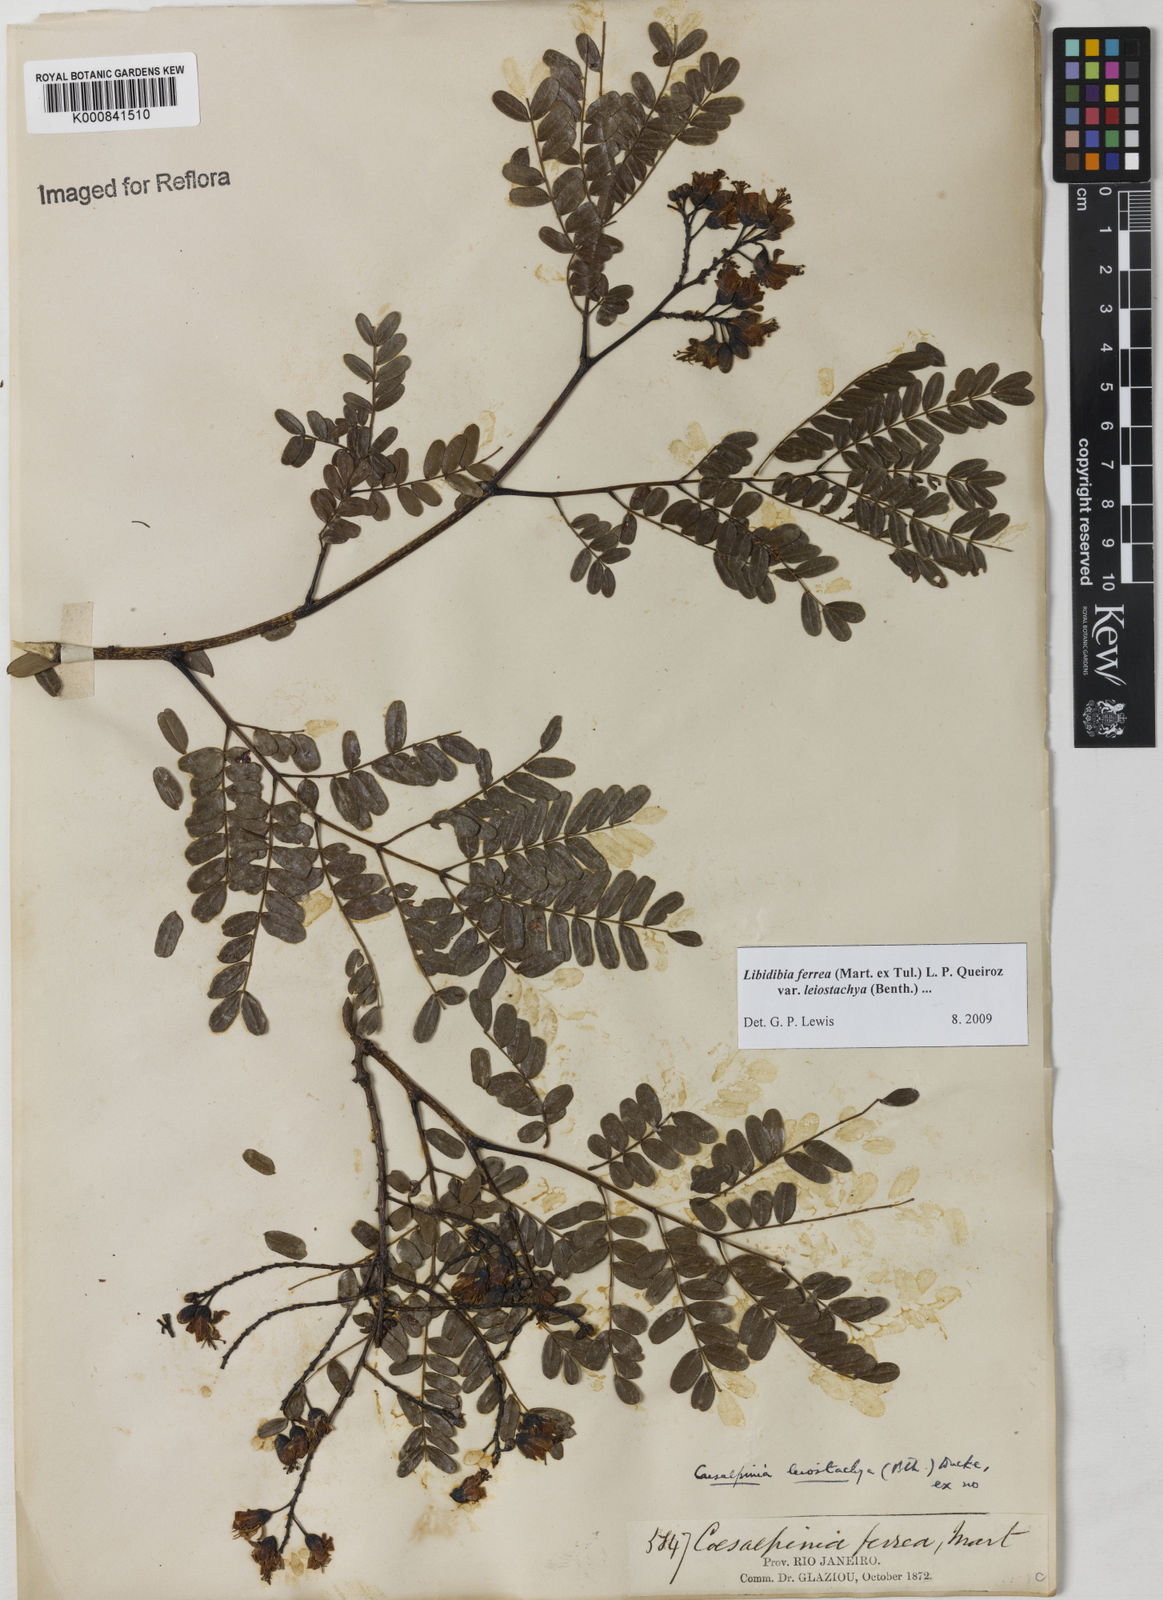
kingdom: Plantae
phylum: Tracheophyta
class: Magnoliopsida
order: Fabales
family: Fabaceae
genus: Libidibia
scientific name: Libidibia ferrea
